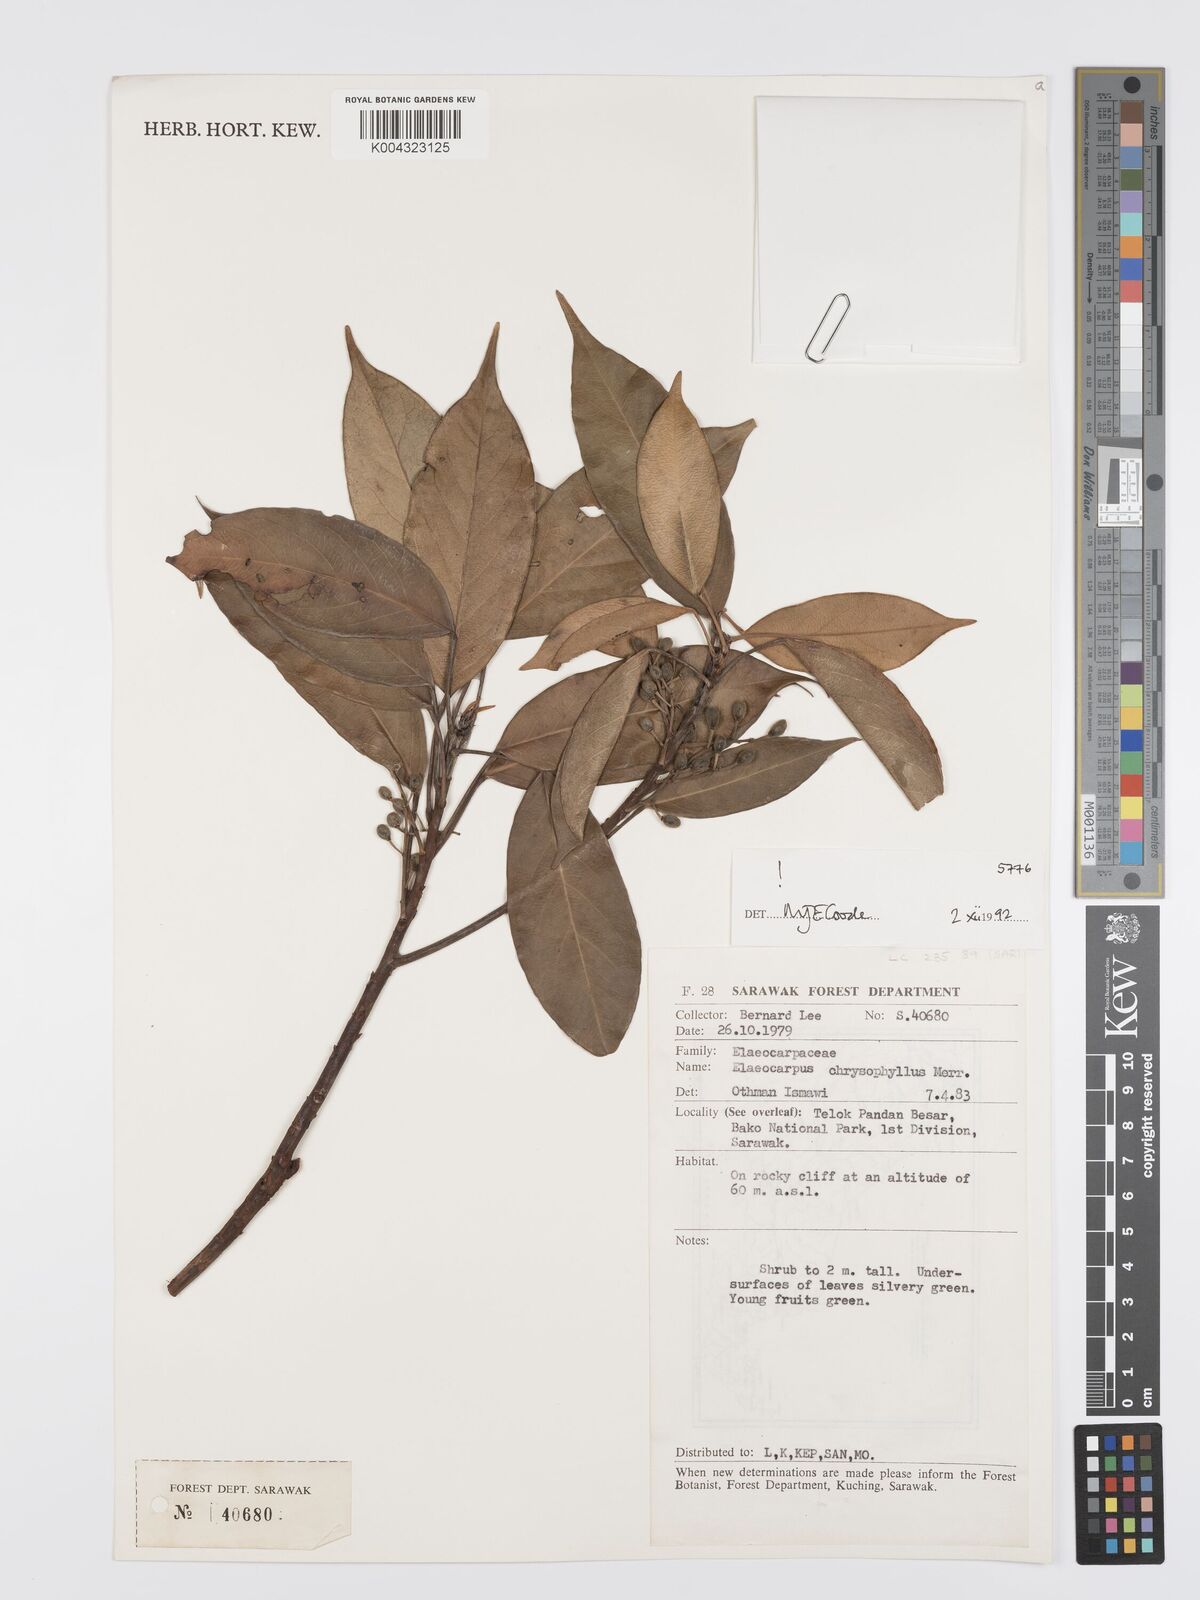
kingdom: Plantae
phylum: Tracheophyta
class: Magnoliopsida
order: Oxalidales
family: Elaeocarpaceae
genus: Elaeocarpus
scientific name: Elaeocarpus chrysophyllus
